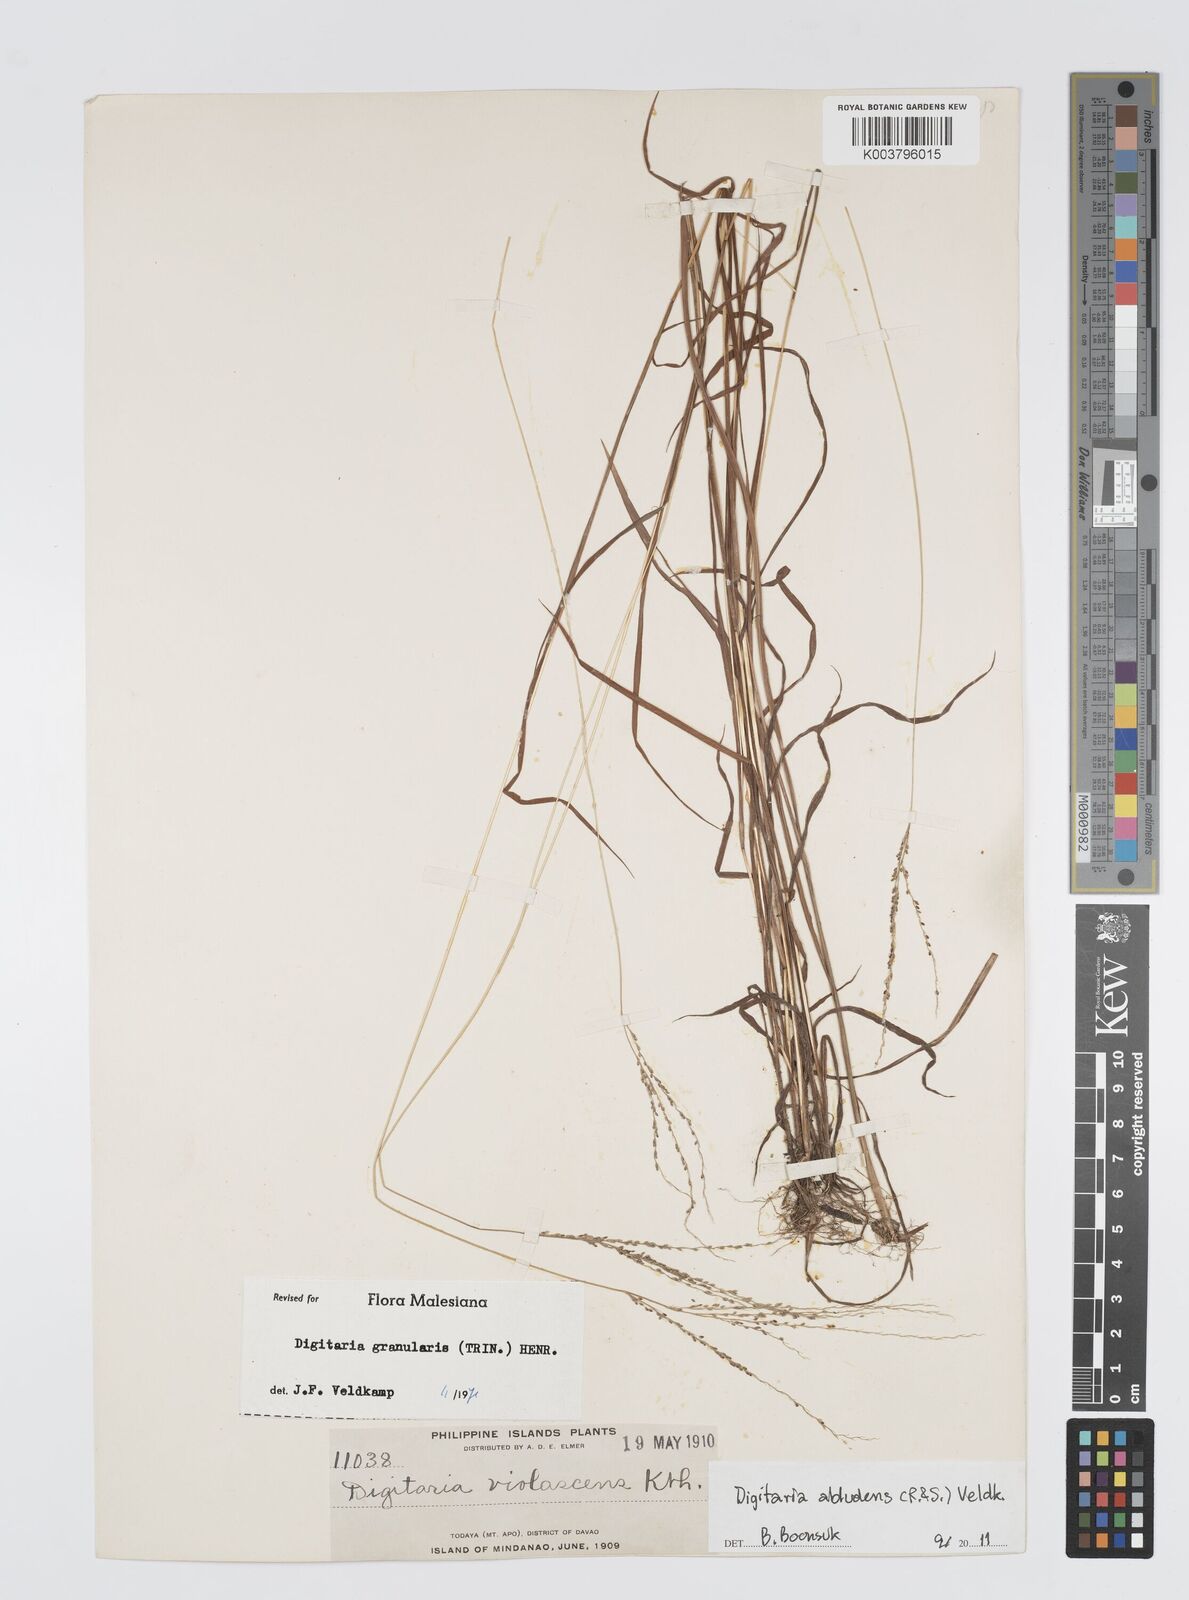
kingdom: Plantae
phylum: Tracheophyta
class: Liliopsida
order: Poales
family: Poaceae
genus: Digitaria
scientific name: Digitaria abludens
